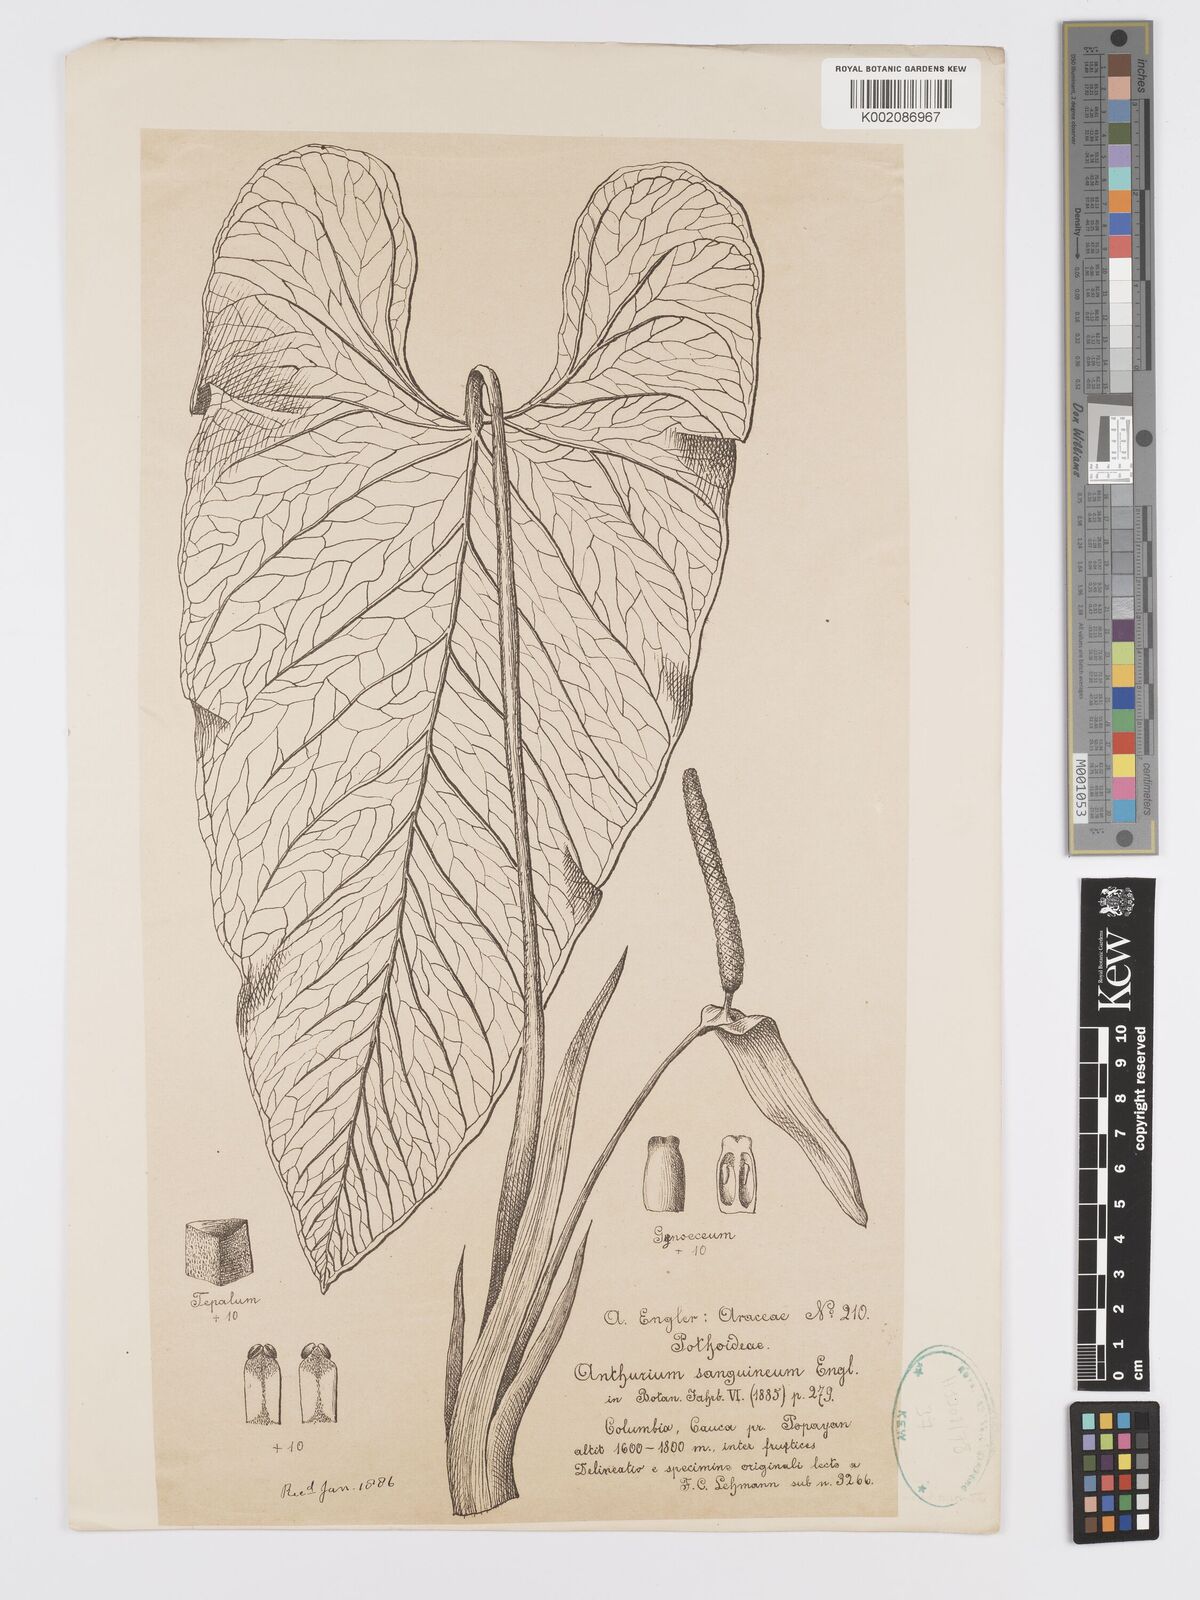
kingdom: Plantae
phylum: Tracheophyta
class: Liliopsida
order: Alismatales
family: Araceae
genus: Anthurium
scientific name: Anthurium sanguineum
